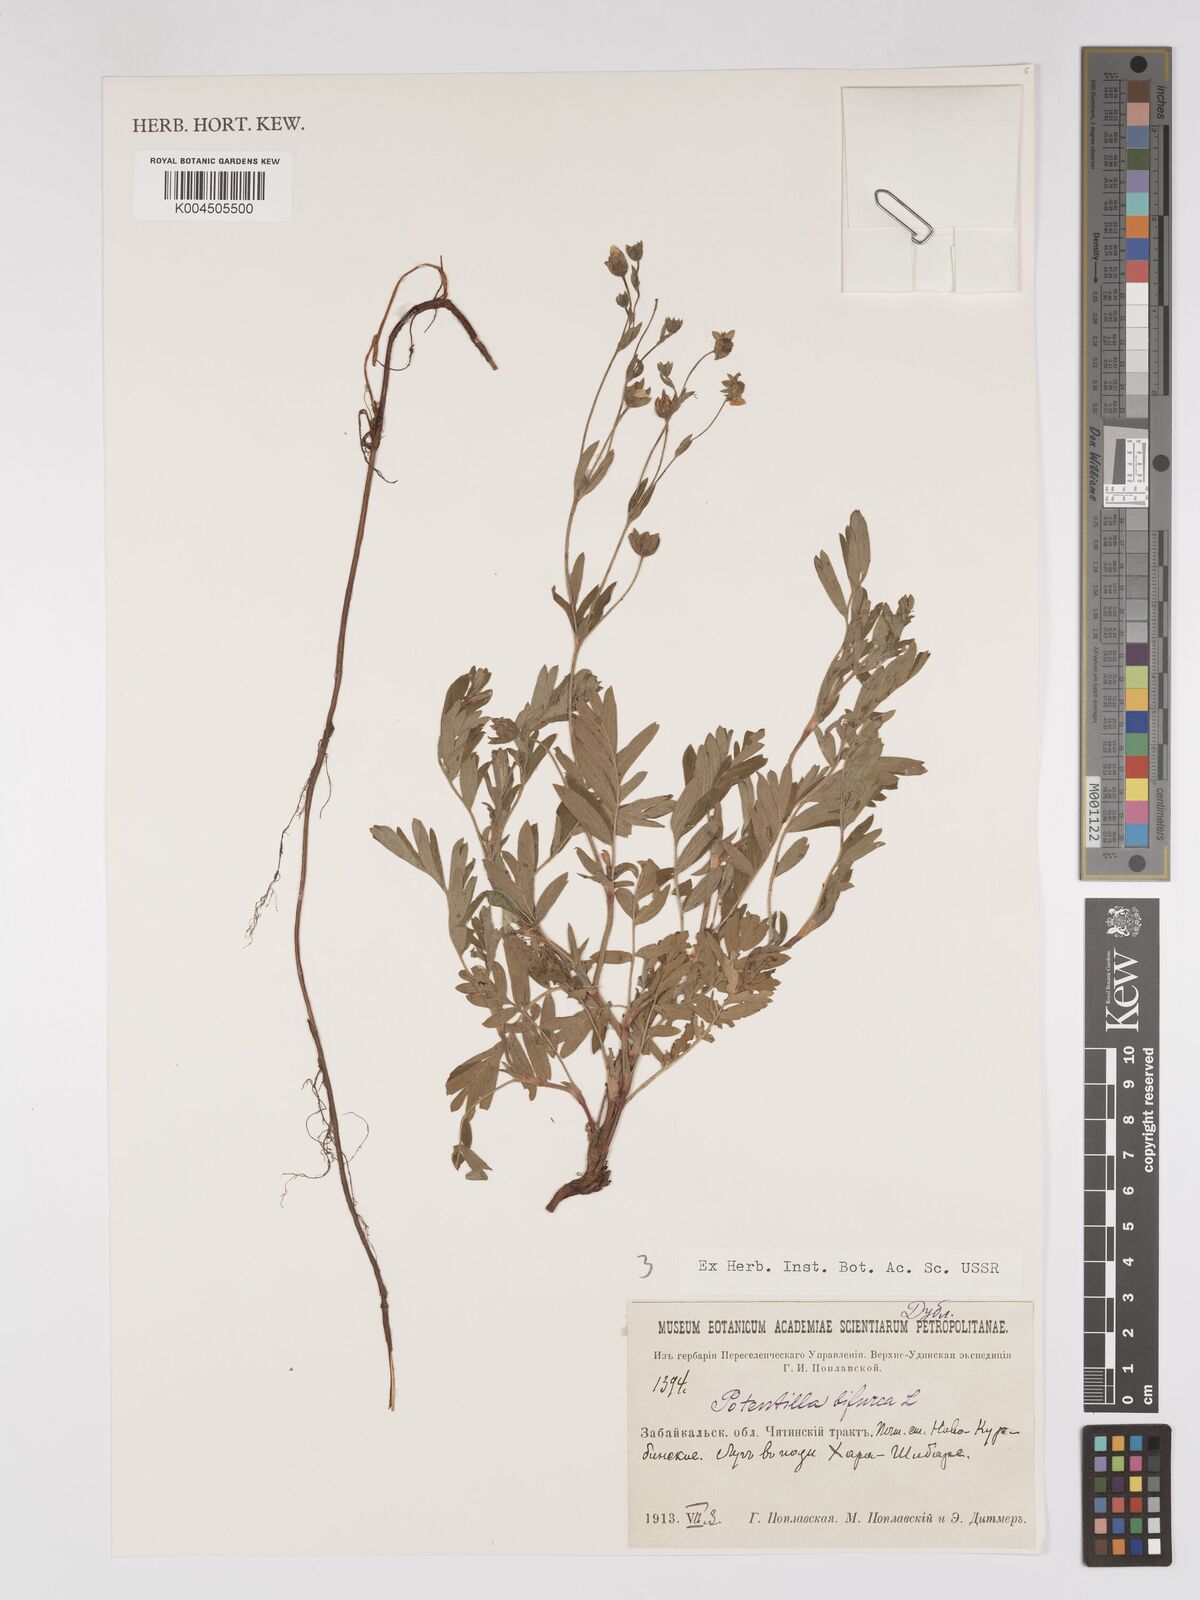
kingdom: Plantae
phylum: Tracheophyta
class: Magnoliopsida
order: Rosales
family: Rosaceae
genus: Sibbaldianthe
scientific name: Sibbaldianthe bifurca
